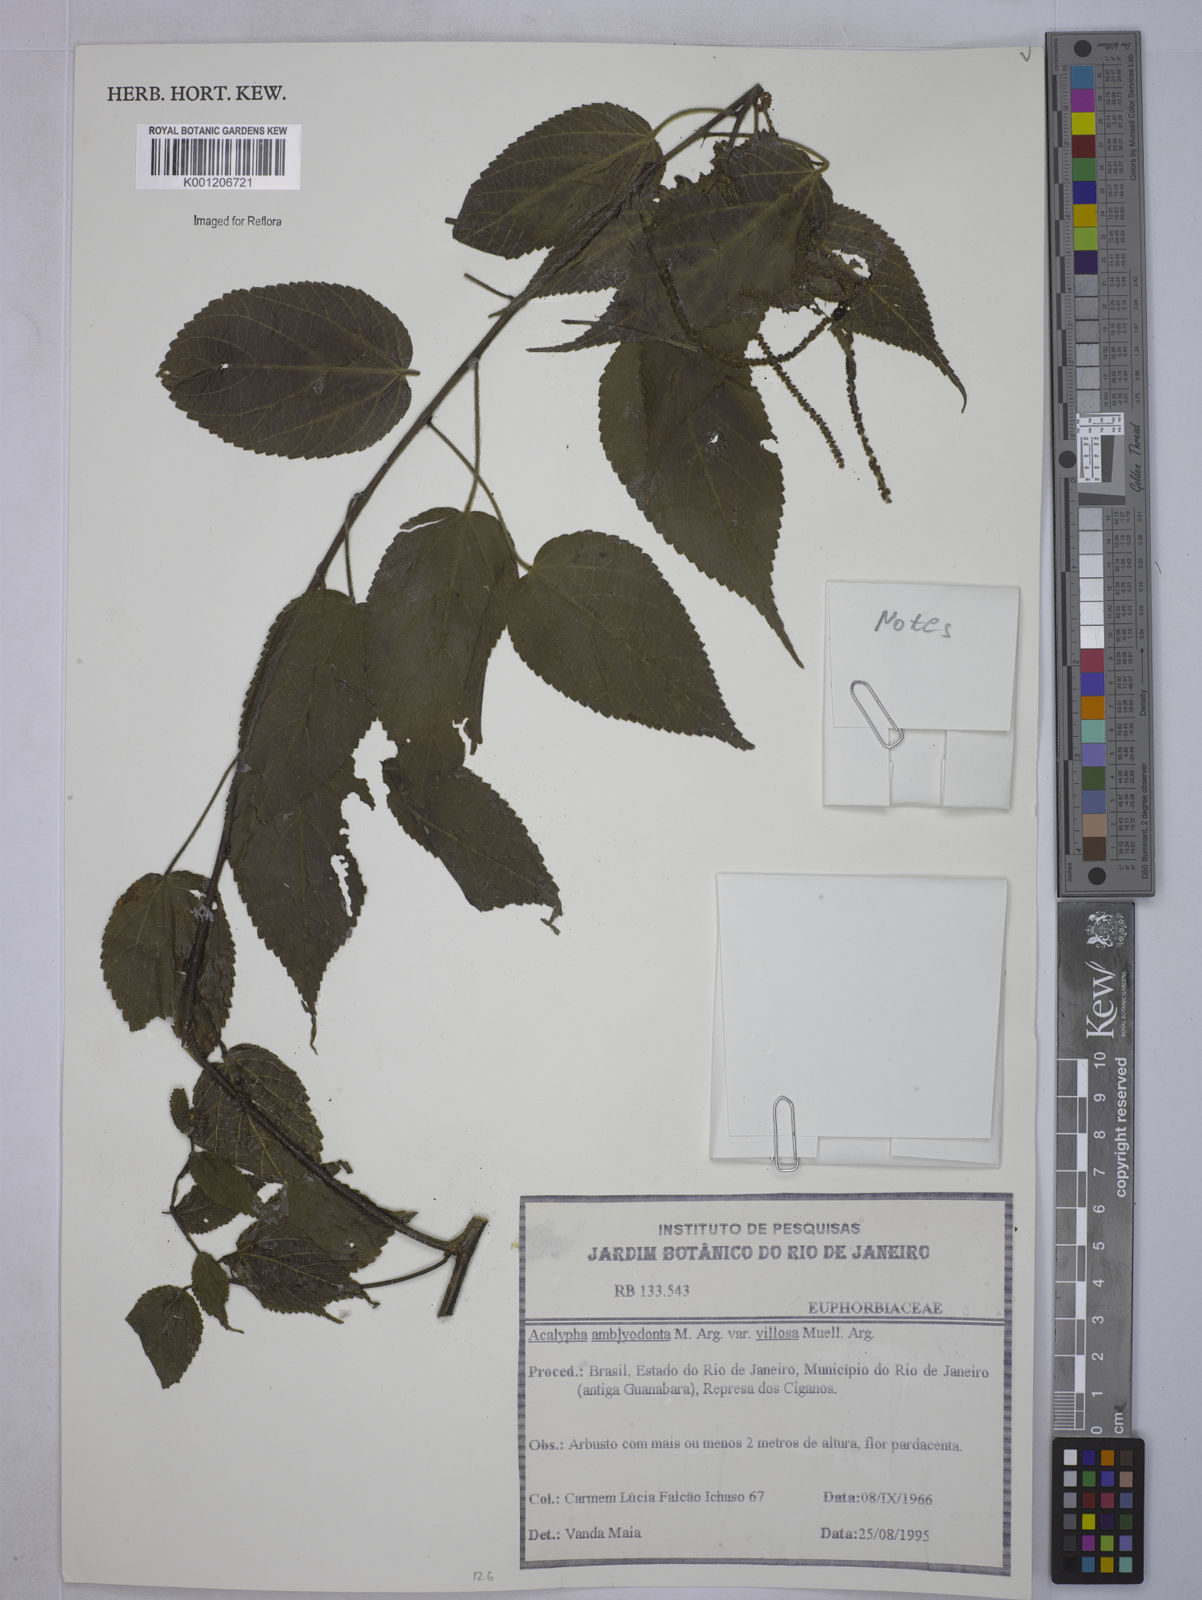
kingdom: Plantae
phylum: Tracheophyta
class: Magnoliopsida
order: Malpighiales
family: Euphorbiaceae
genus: Acalypha
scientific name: Acalypha
